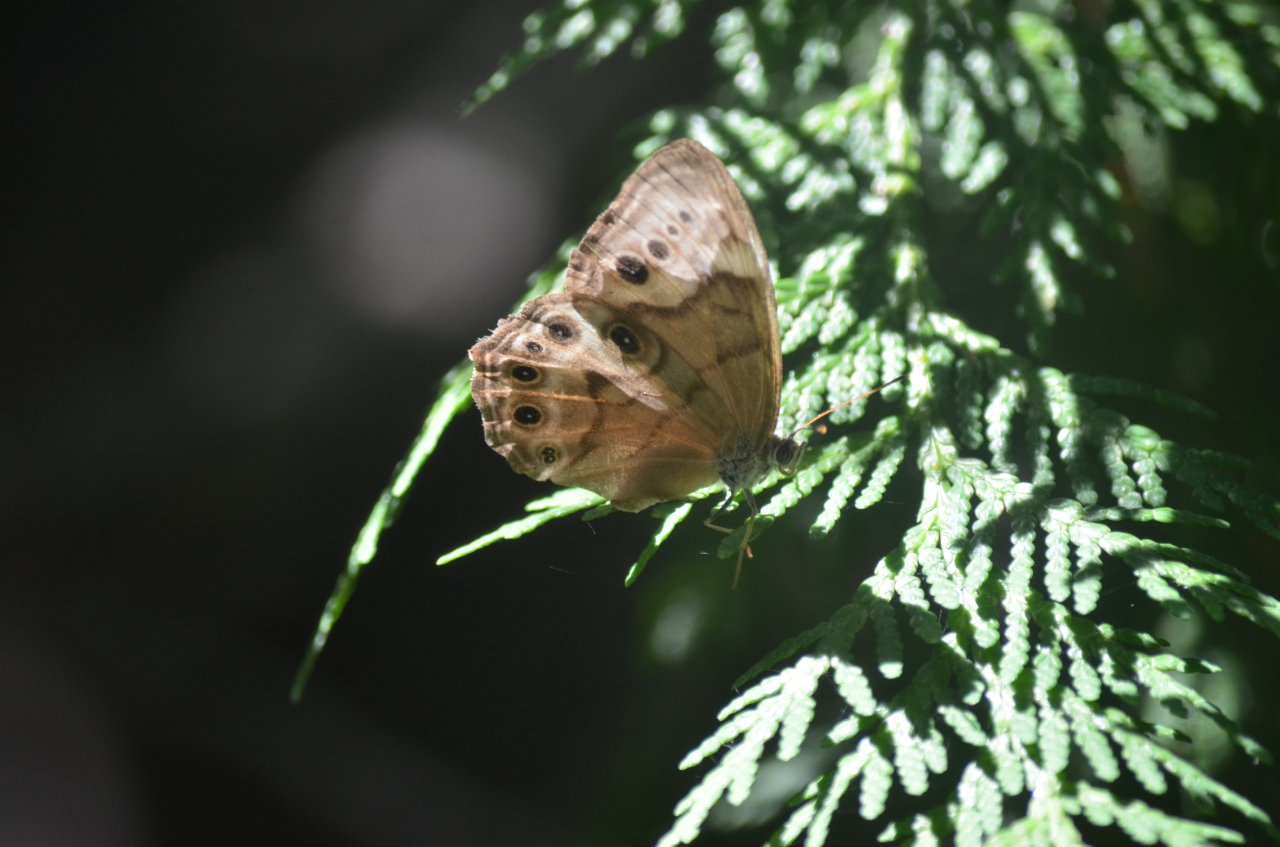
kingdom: Animalia
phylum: Arthropoda
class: Insecta
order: Lepidoptera
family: Nymphalidae
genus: Lethe
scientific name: Lethe anthedon
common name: Northern Pearly-Eye
